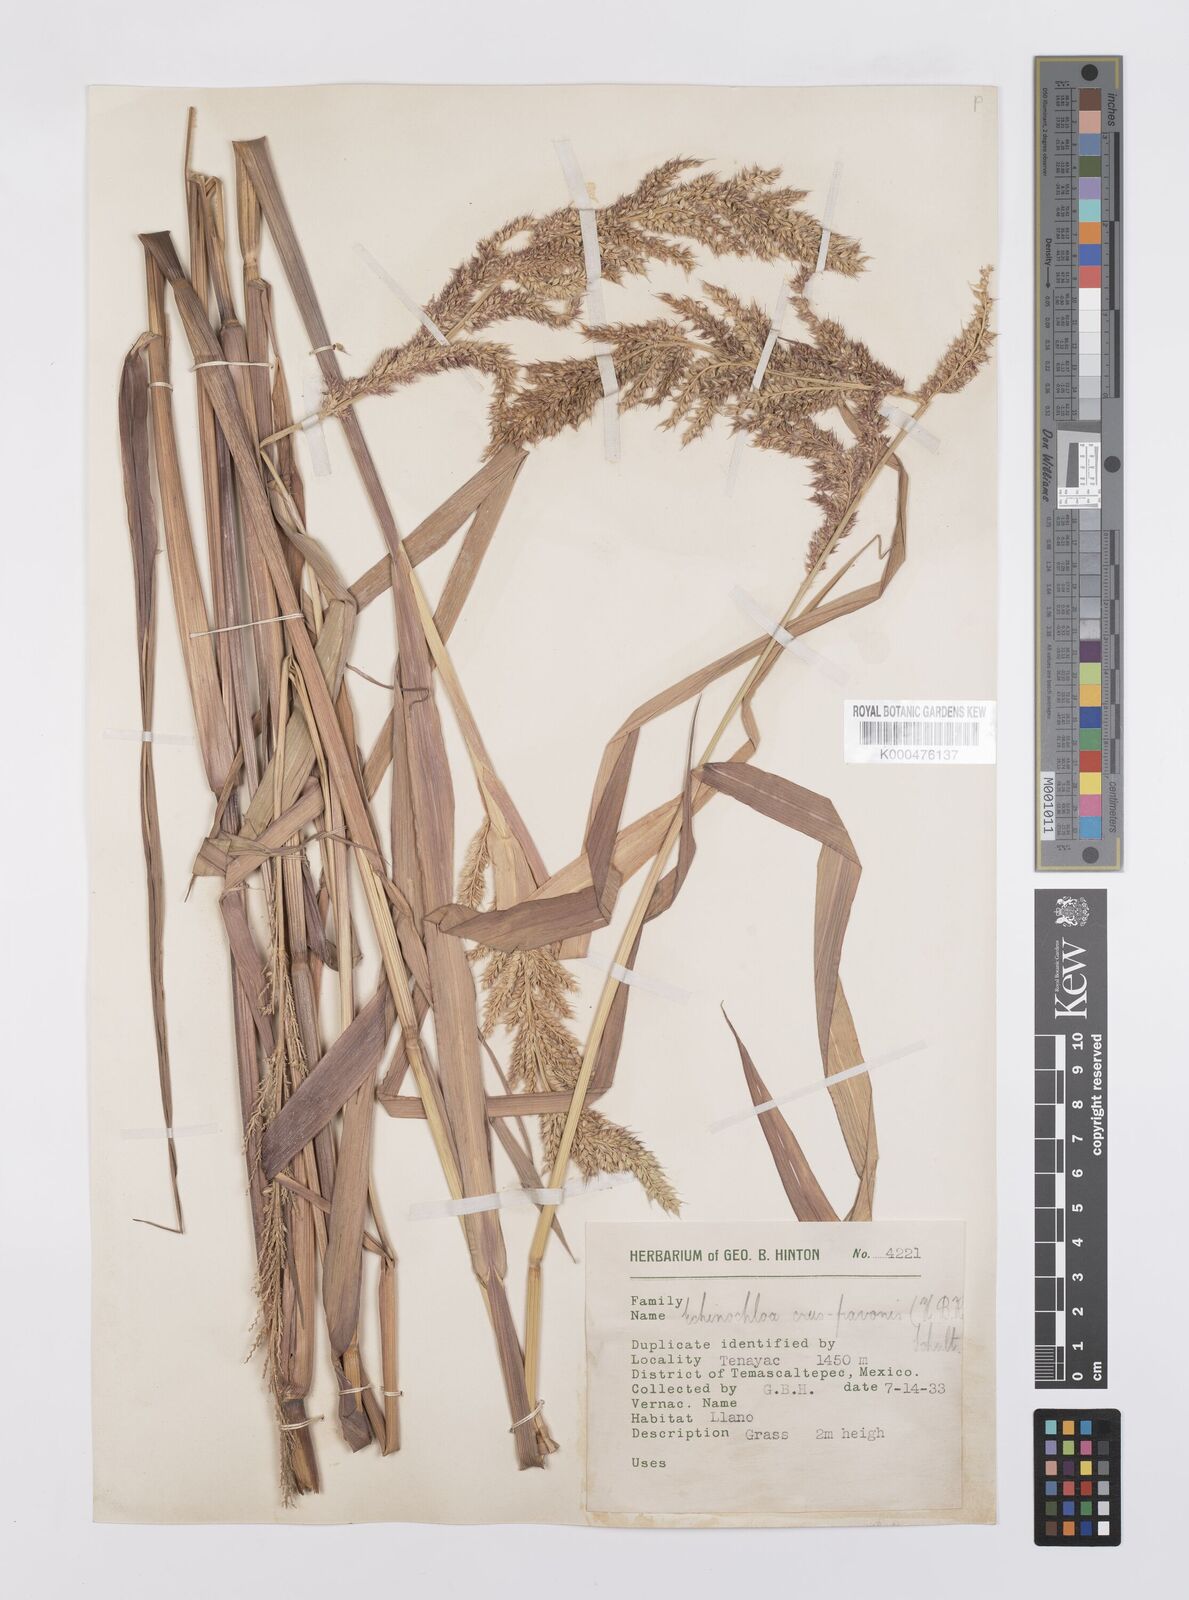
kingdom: Plantae
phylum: Tracheophyta
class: Liliopsida
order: Poales
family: Poaceae
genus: Echinochloa
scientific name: Echinochloa crus-pavonis
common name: Gulf cockspur grass
